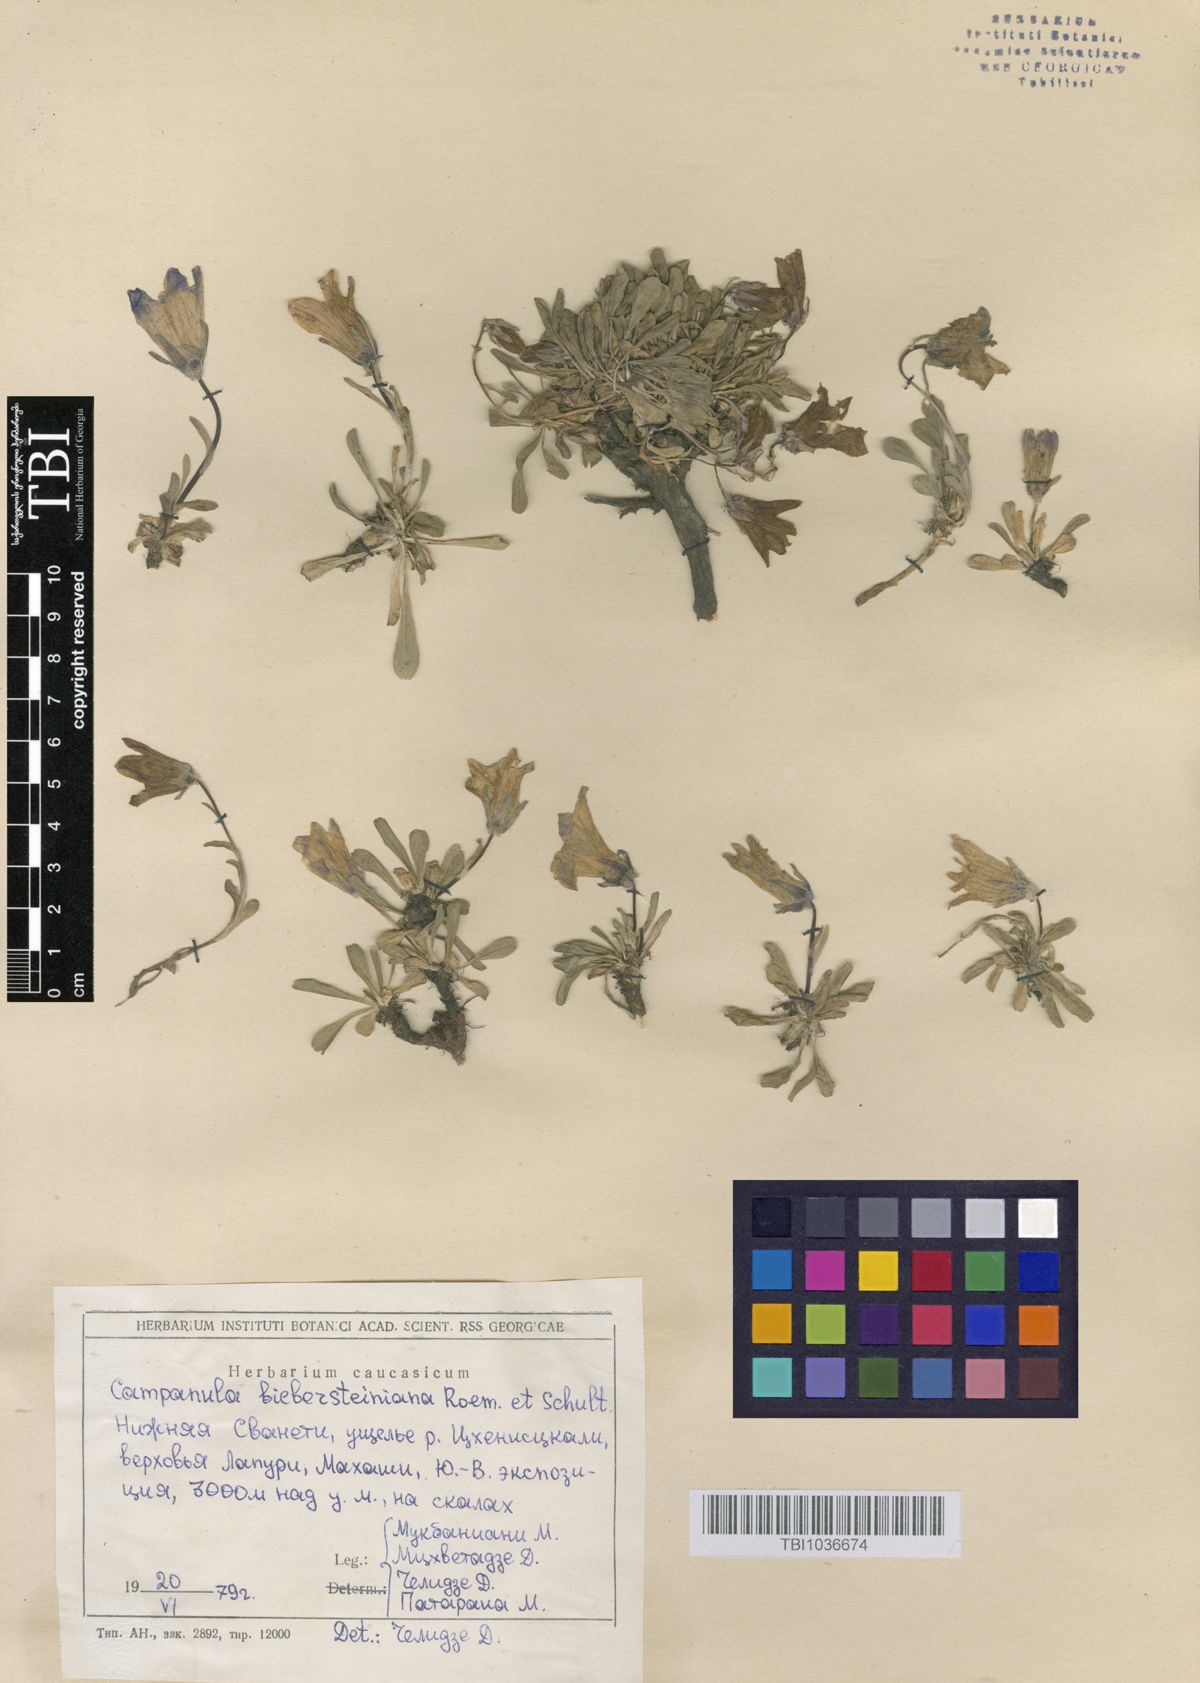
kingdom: Plantae
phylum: Tracheophyta
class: Magnoliopsida
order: Asterales
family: Campanulaceae
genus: Campanula
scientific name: Campanula tridentata
